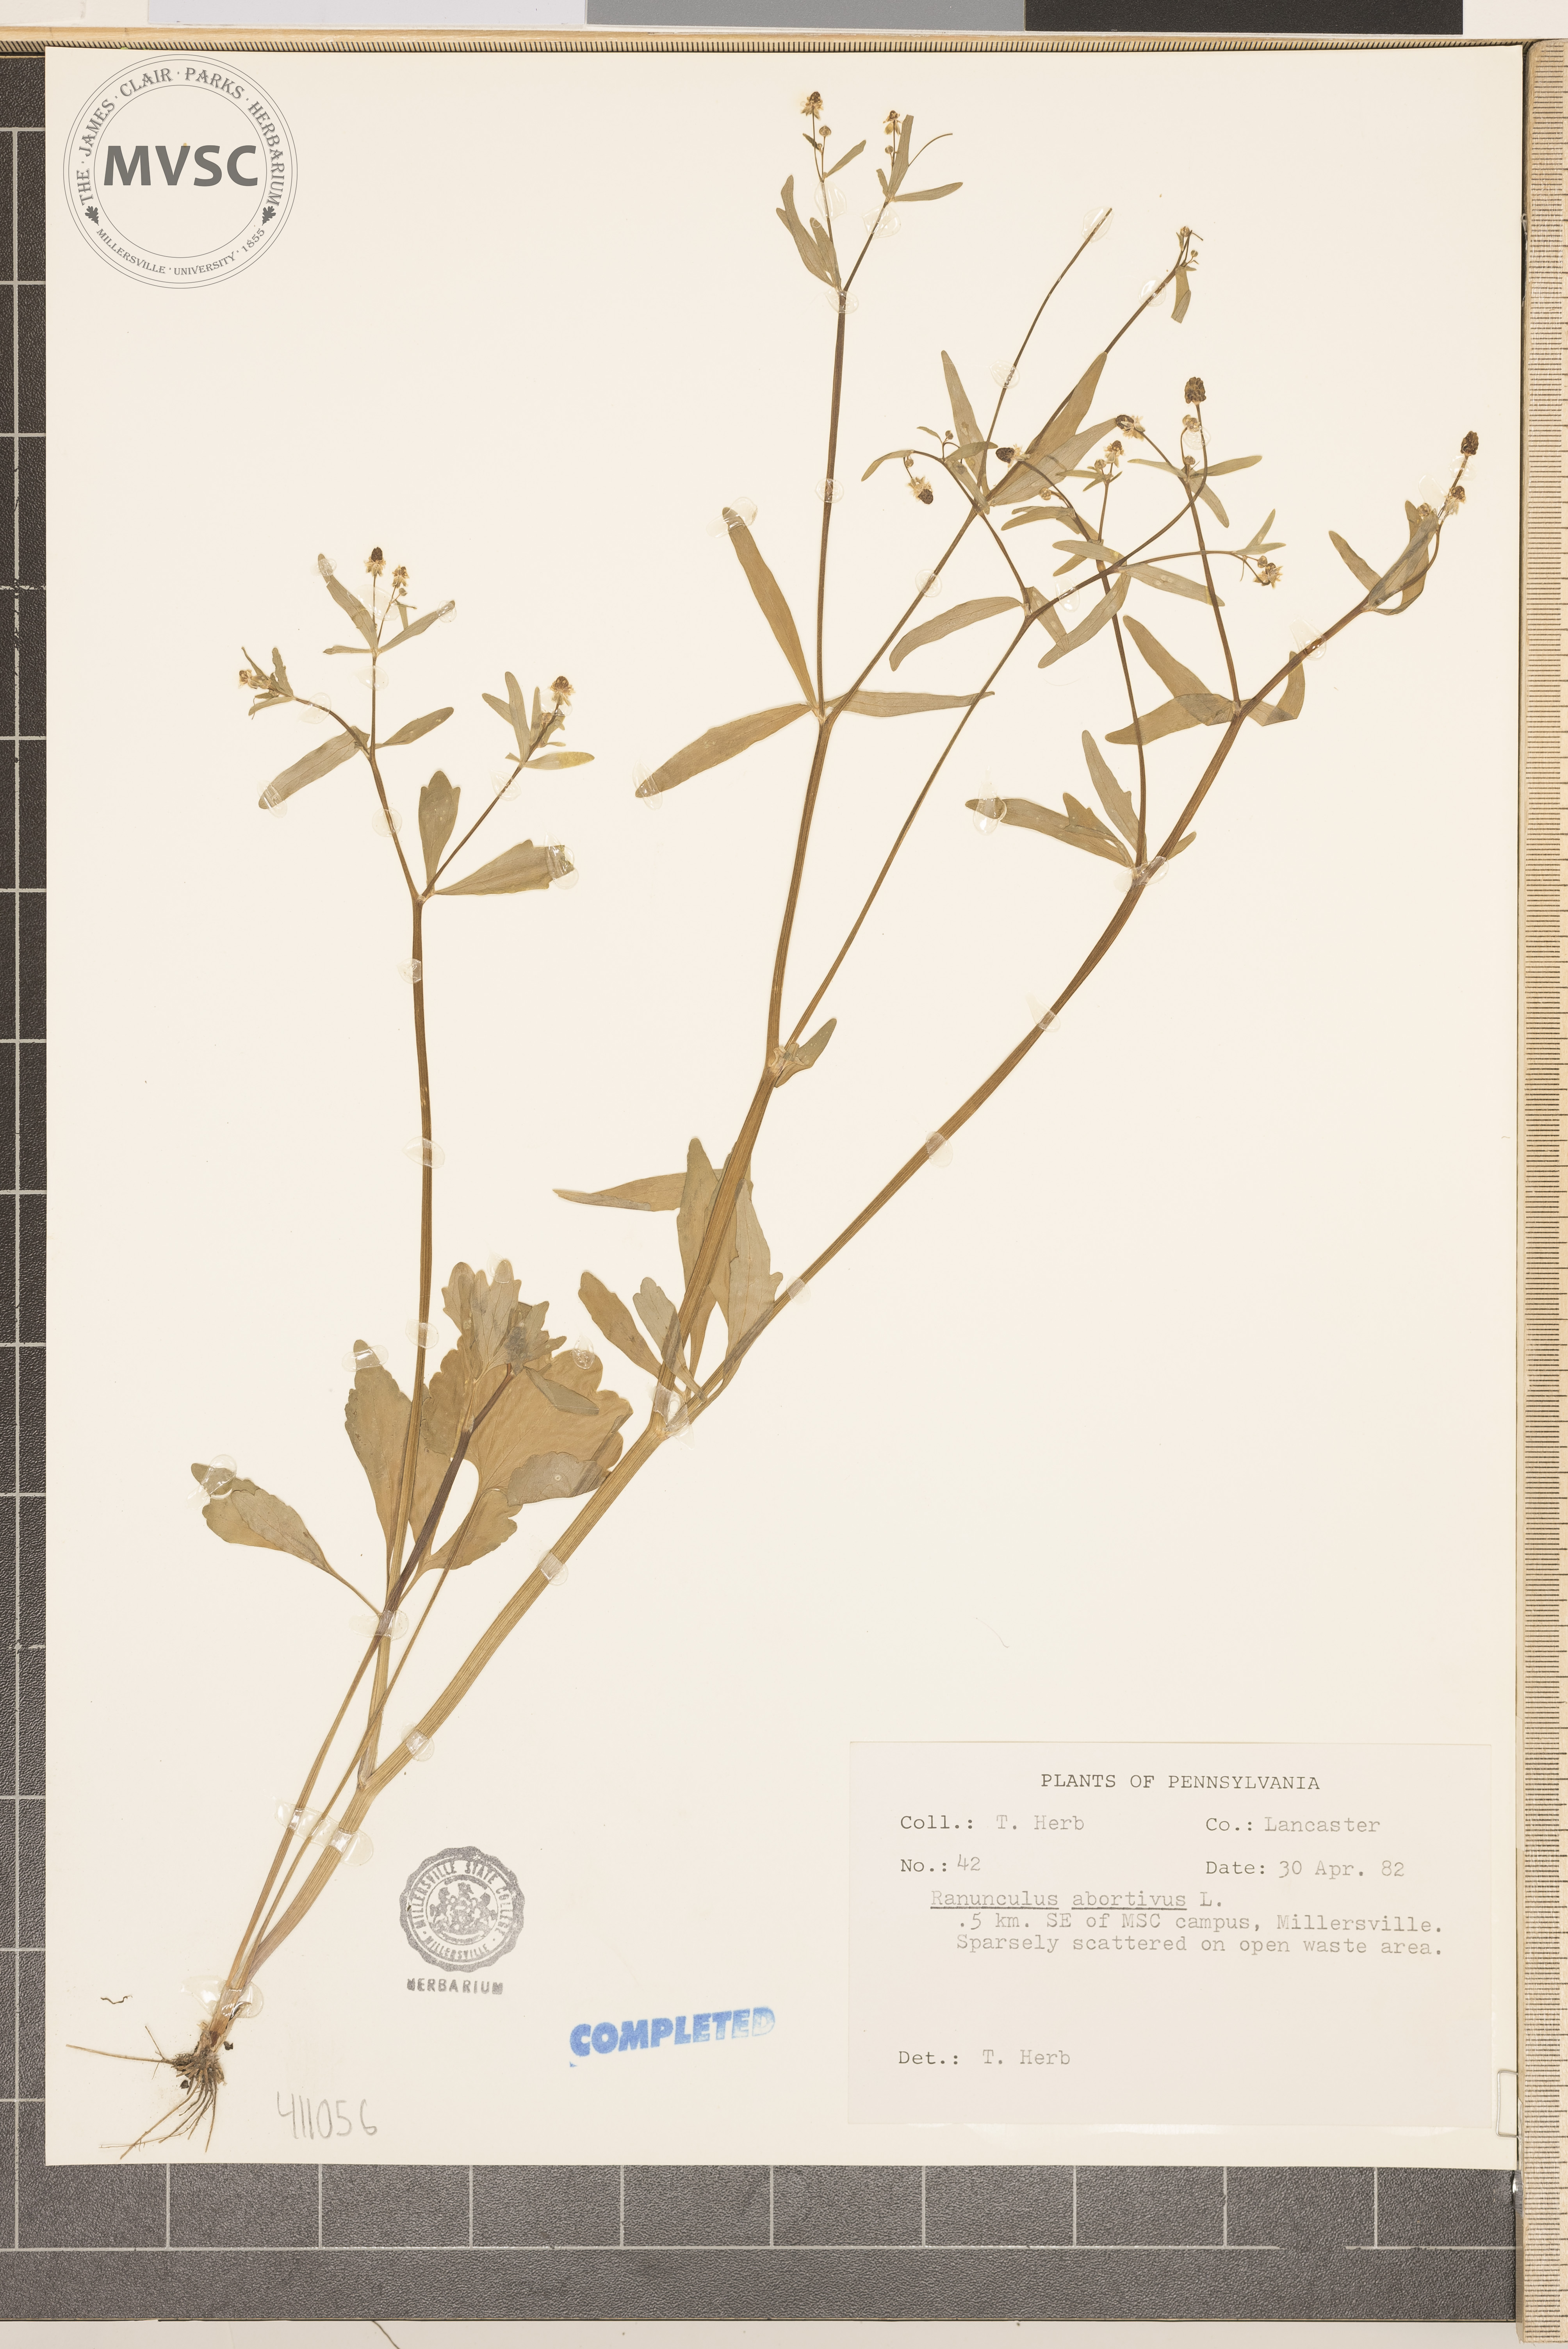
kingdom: Plantae
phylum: Tracheophyta
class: Magnoliopsida
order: Ranunculales
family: Ranunculaceae
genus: Ranunculus
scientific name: Ranunculus abortivus
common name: Early wood buttercup
